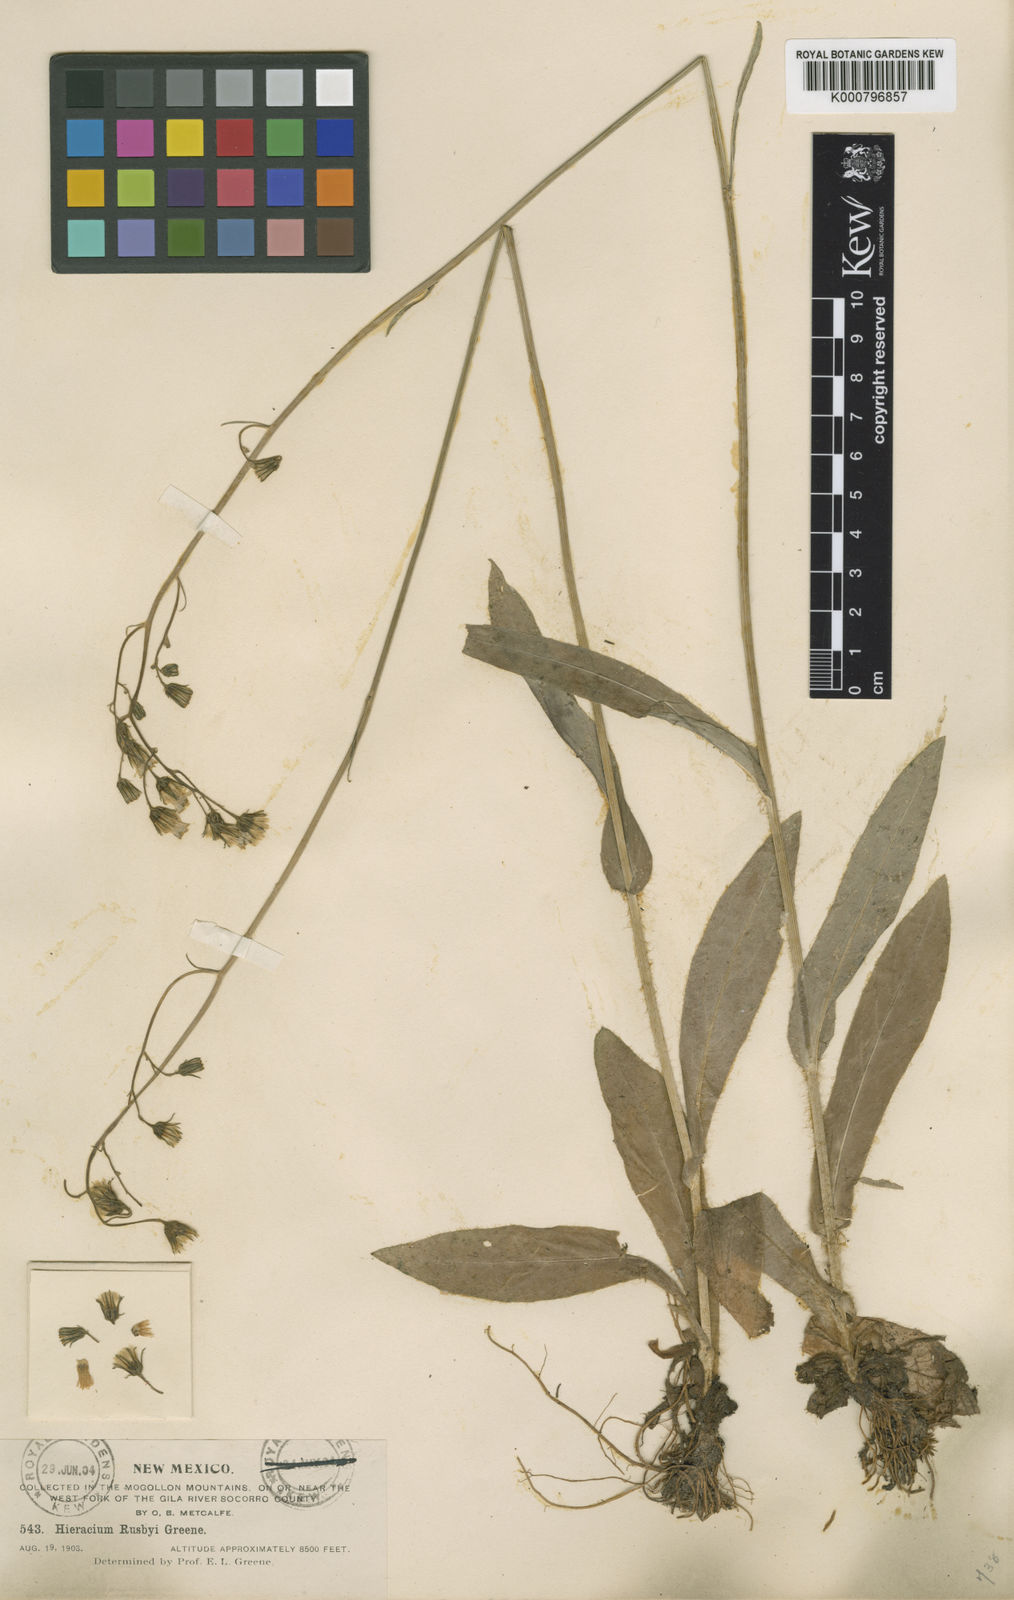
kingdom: Plantae
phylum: Tracheophyta
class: Magnoliopsida
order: Asterales
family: Asteraceae
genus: Hieracium
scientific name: Hieracium abscissum
